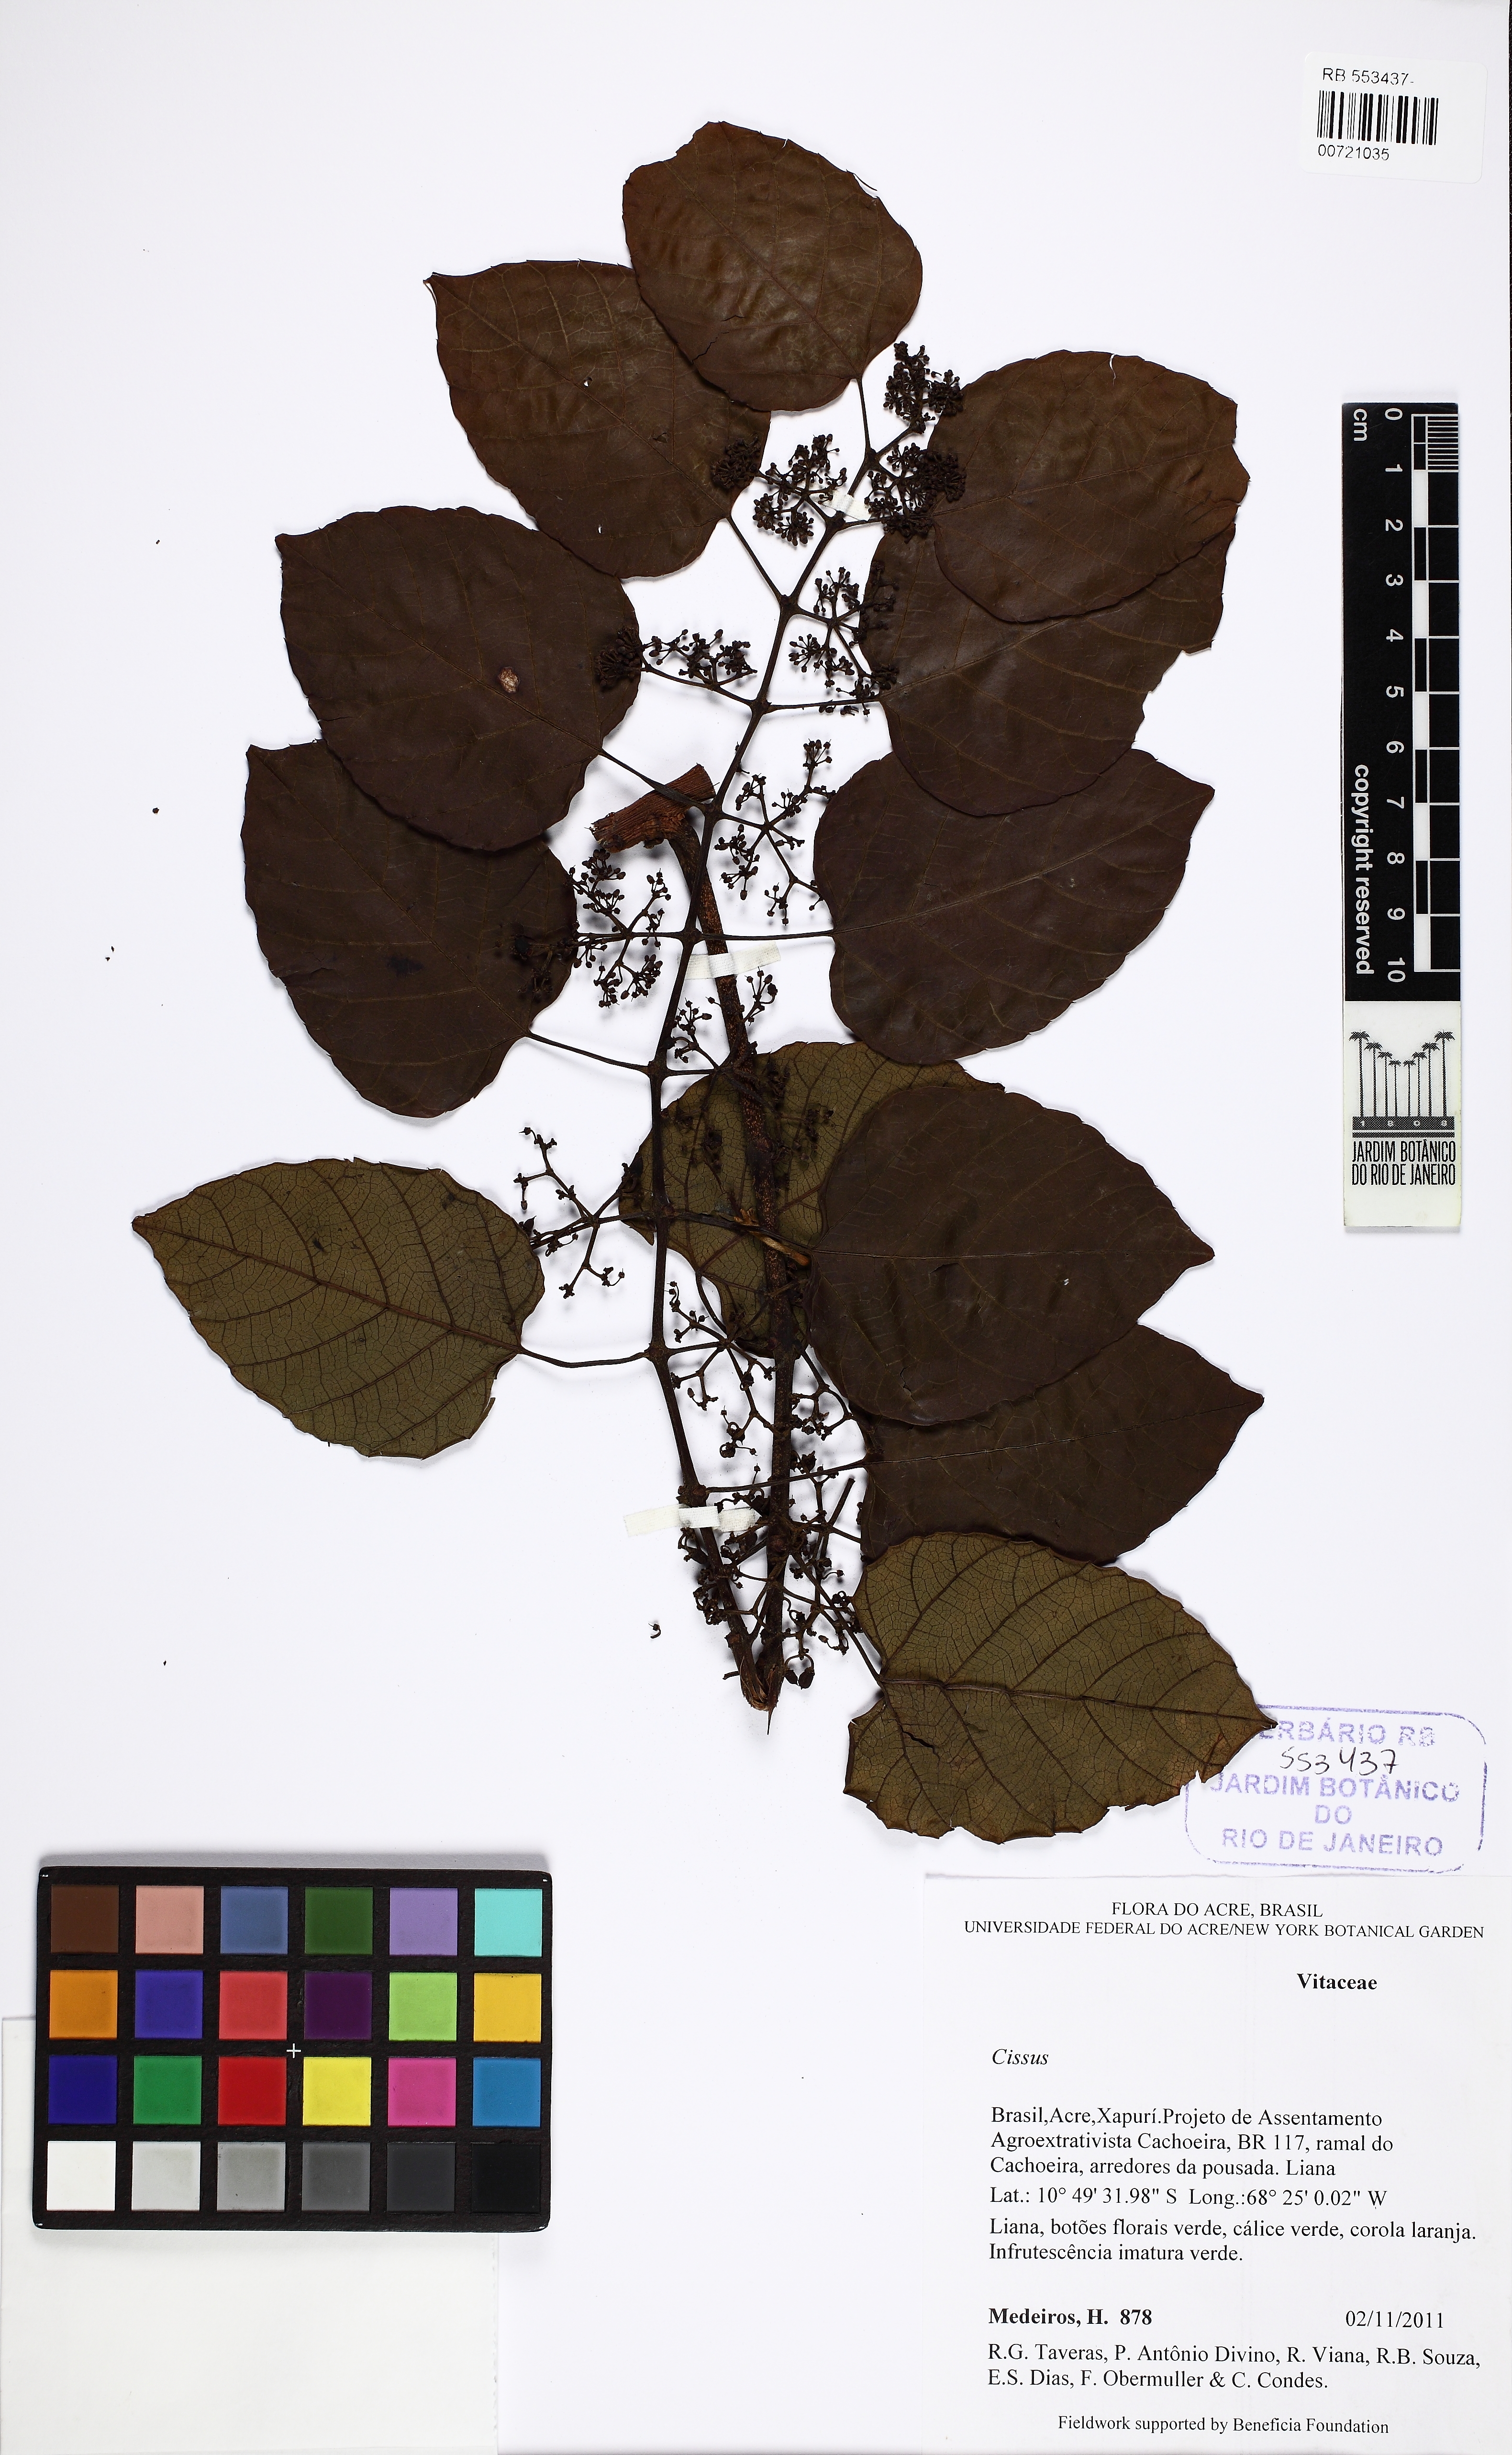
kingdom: Plantae
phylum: Tracheophyta
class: Magnoliopsida
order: Vitales
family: Vitaceae
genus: Cissus
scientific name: Cissus
